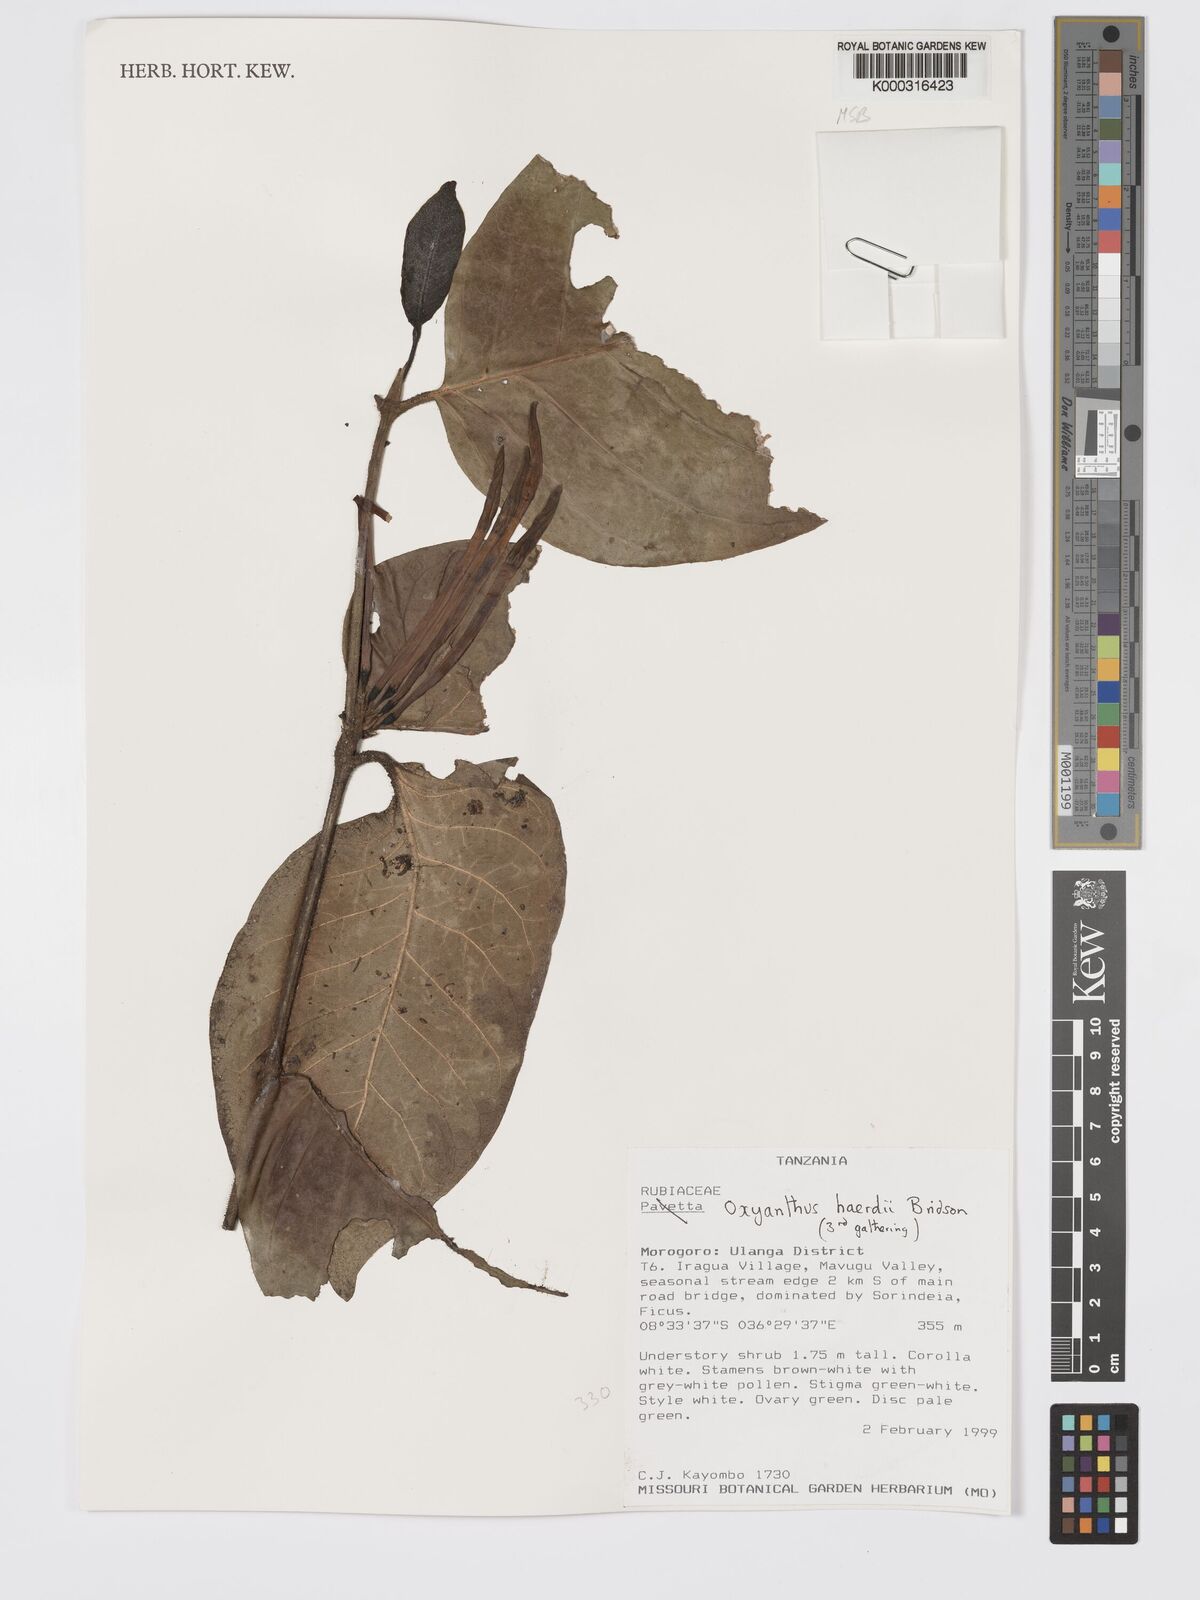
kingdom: Plantae
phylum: Tracheophyta
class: Magnoliopsida
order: Gentianales
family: Rubiaceae
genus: Oxyanthus
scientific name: Oxyanthus haerdii
